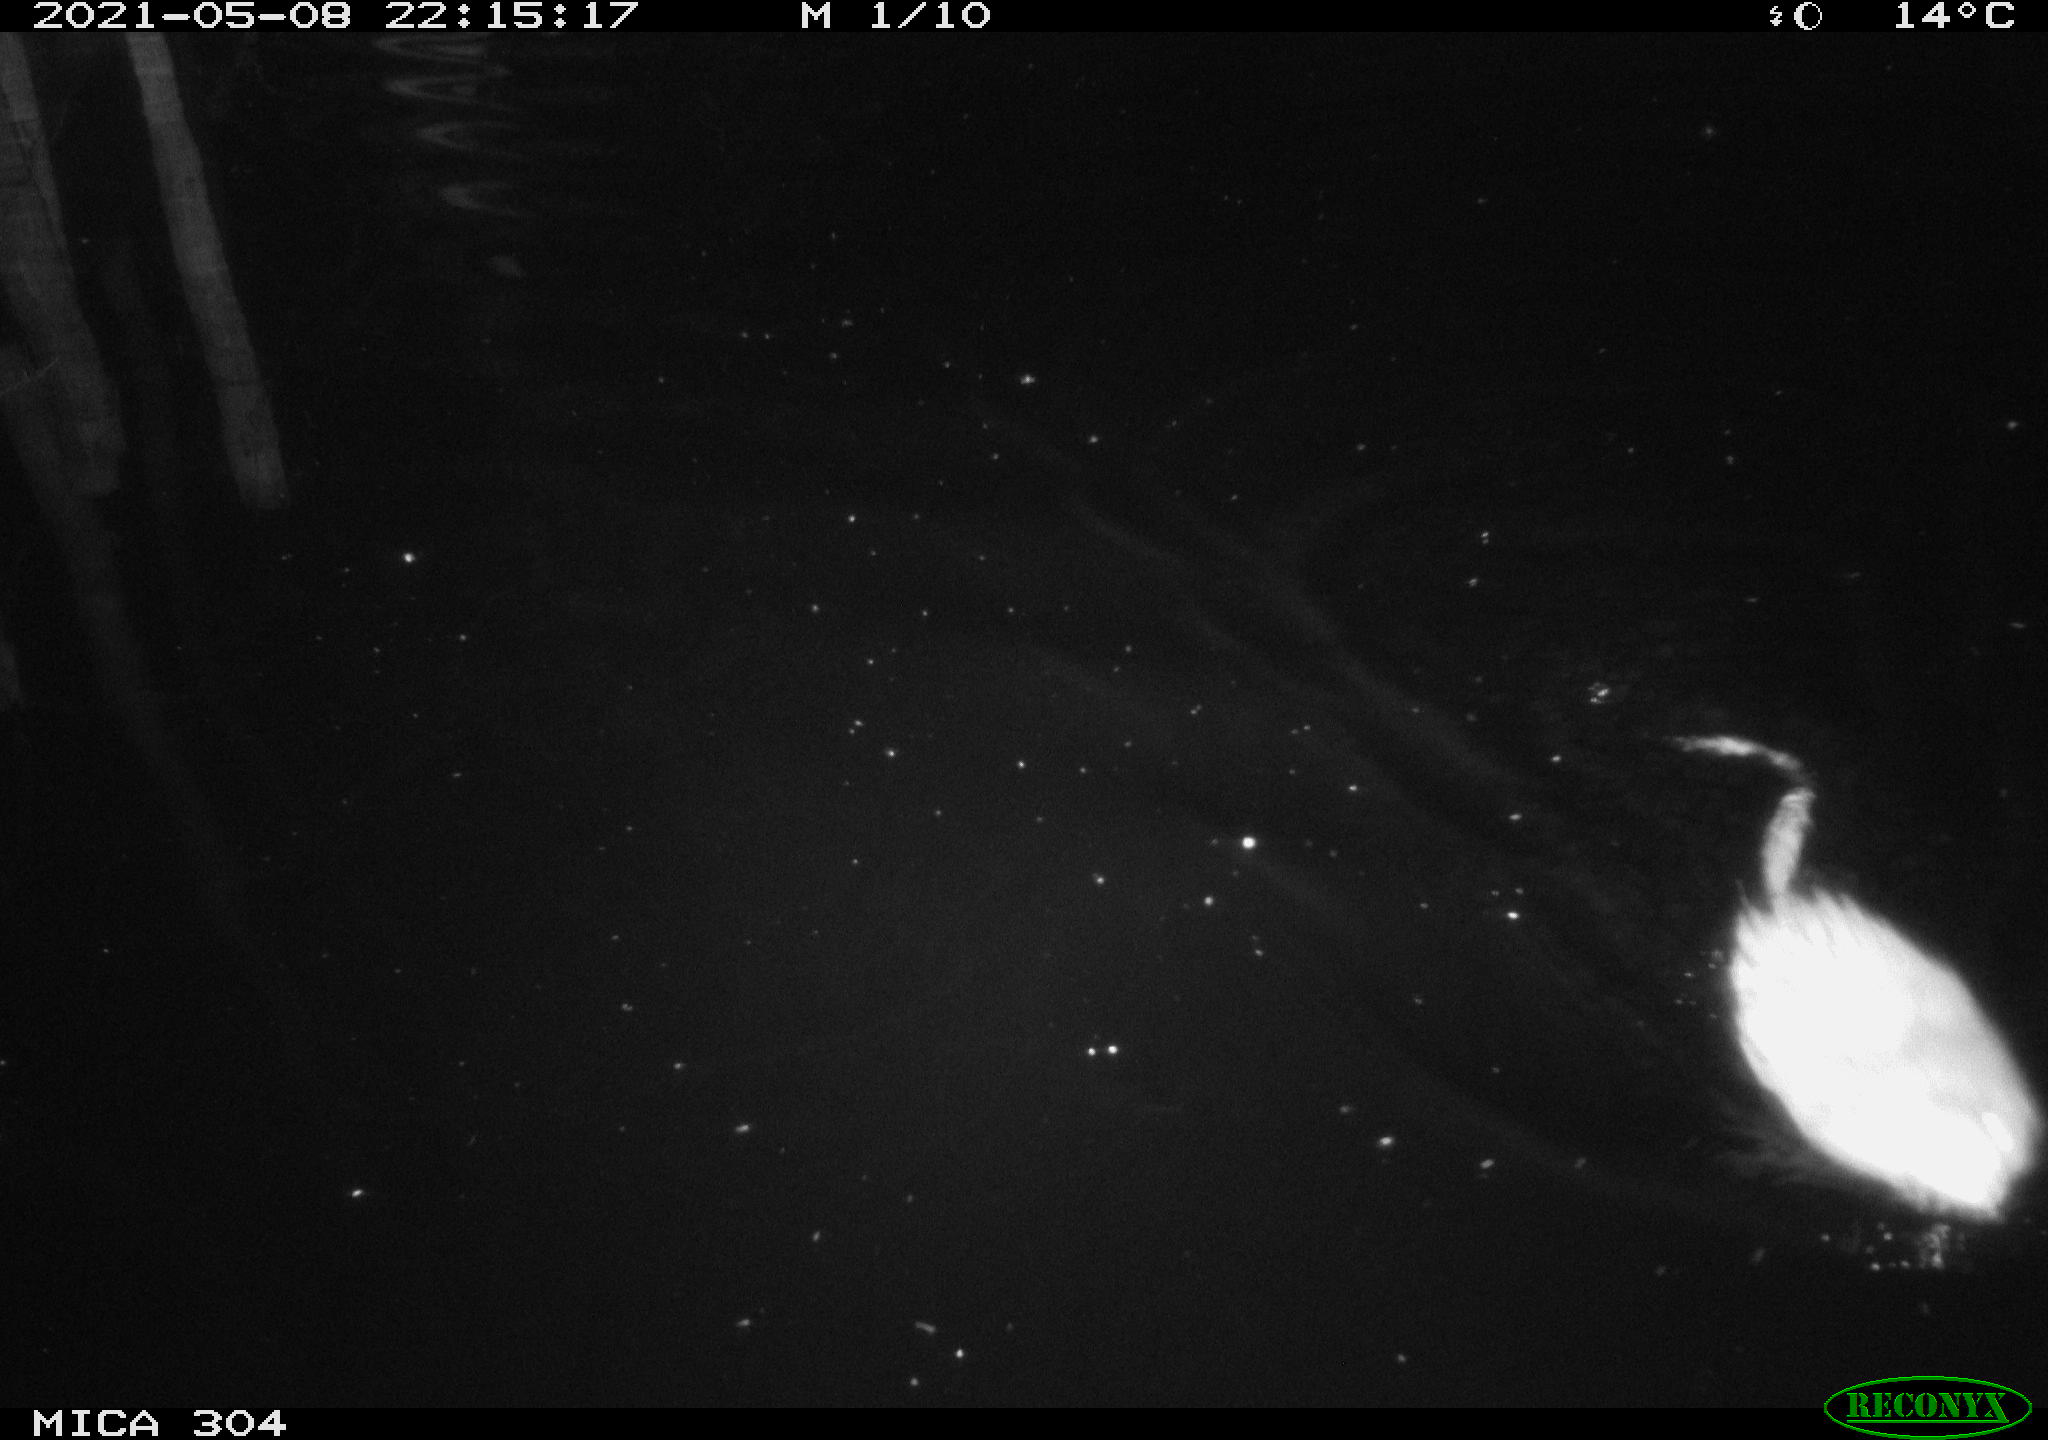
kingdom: Animalia
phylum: Chordata
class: Mammalia
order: Rodentia
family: Cricetidae
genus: Ondatra
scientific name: Ondatra zibethicus
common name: Muskrat
